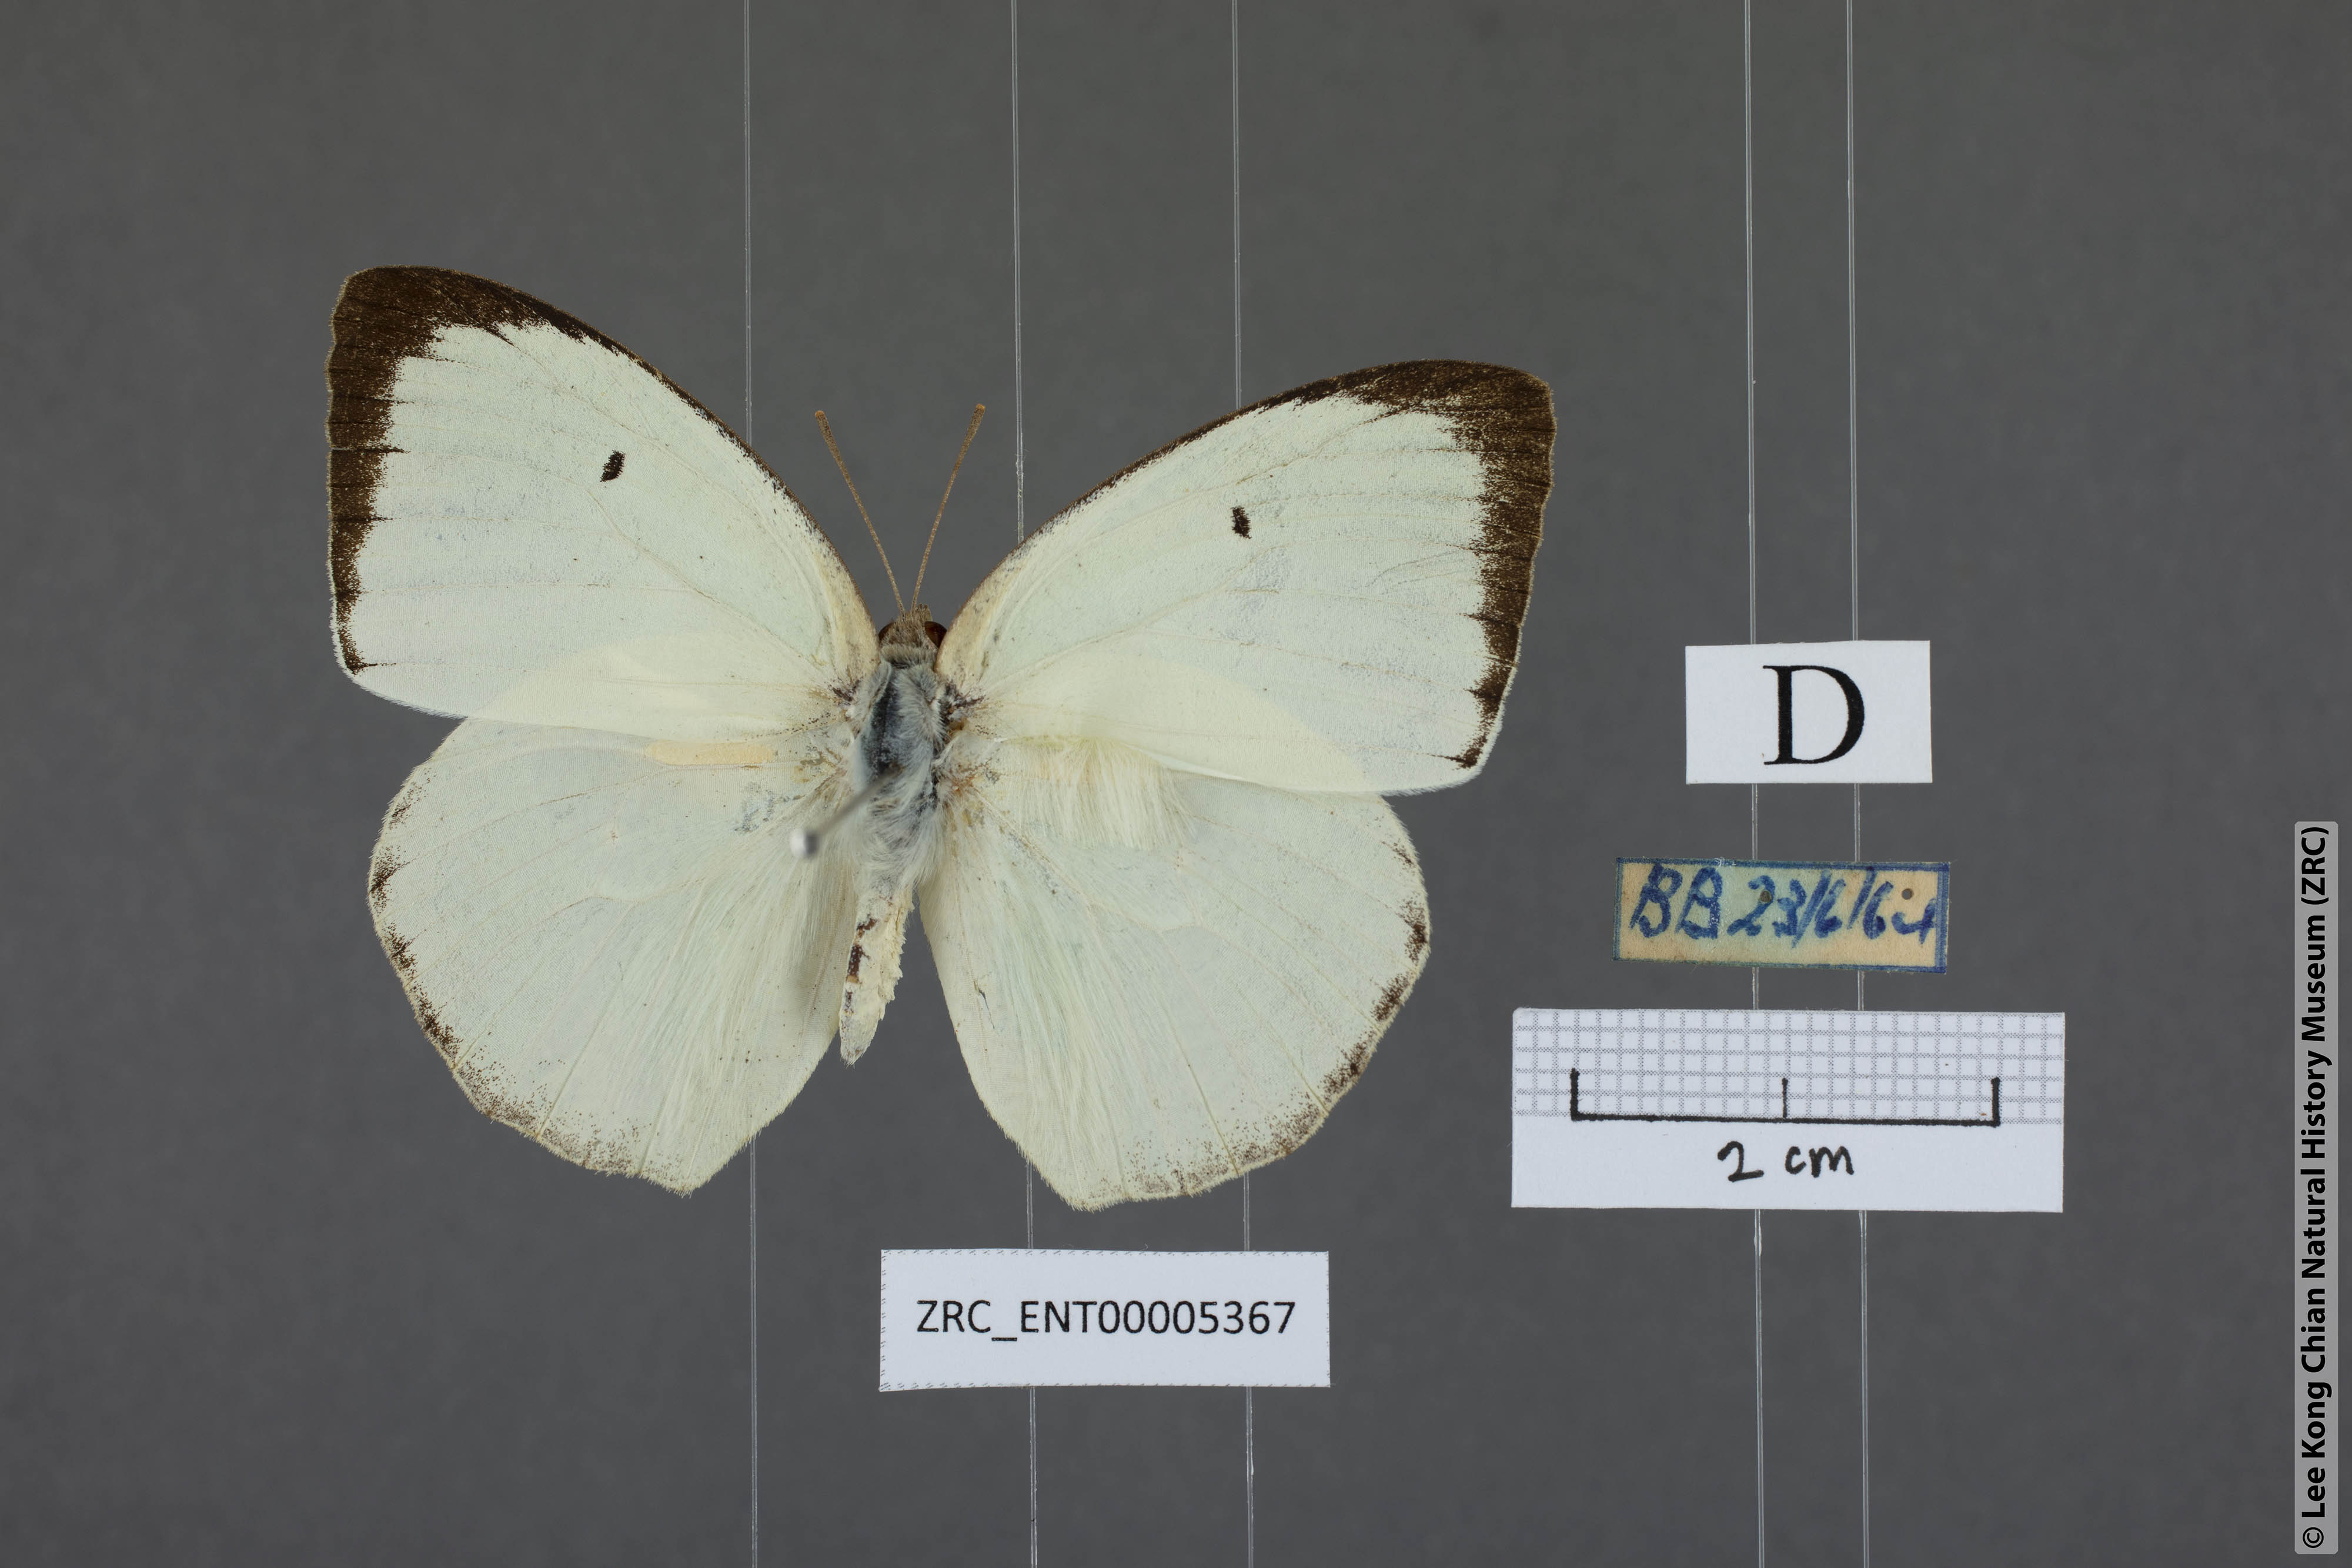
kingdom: Animalia
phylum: Arthropoda
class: Insecta
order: Lepidoptera
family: Pieridae
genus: Catopsilia
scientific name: Catopsilia pyranthe
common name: Mottled emigrant
